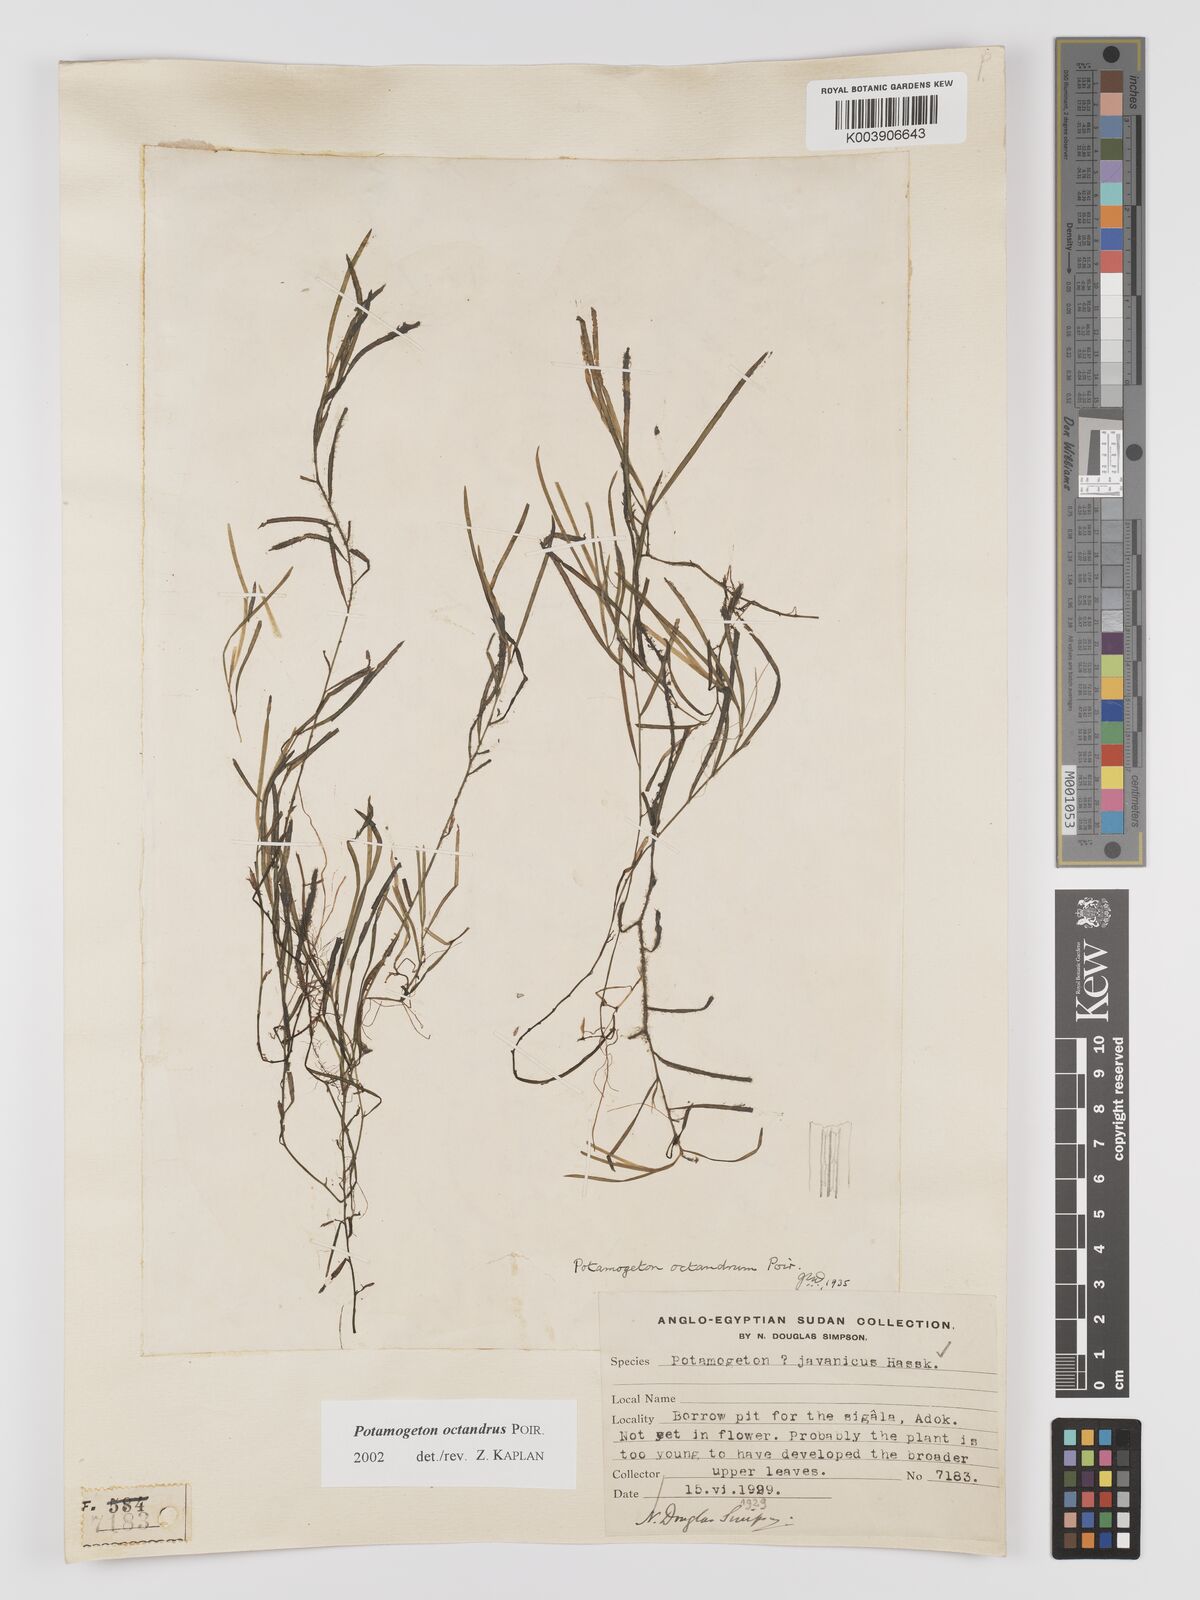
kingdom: Plantae
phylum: Tracheophyta
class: Liliopsida
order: Alismatales
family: Potamogetonaceae
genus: Potamogeton
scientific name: Potamogeton octandrus
